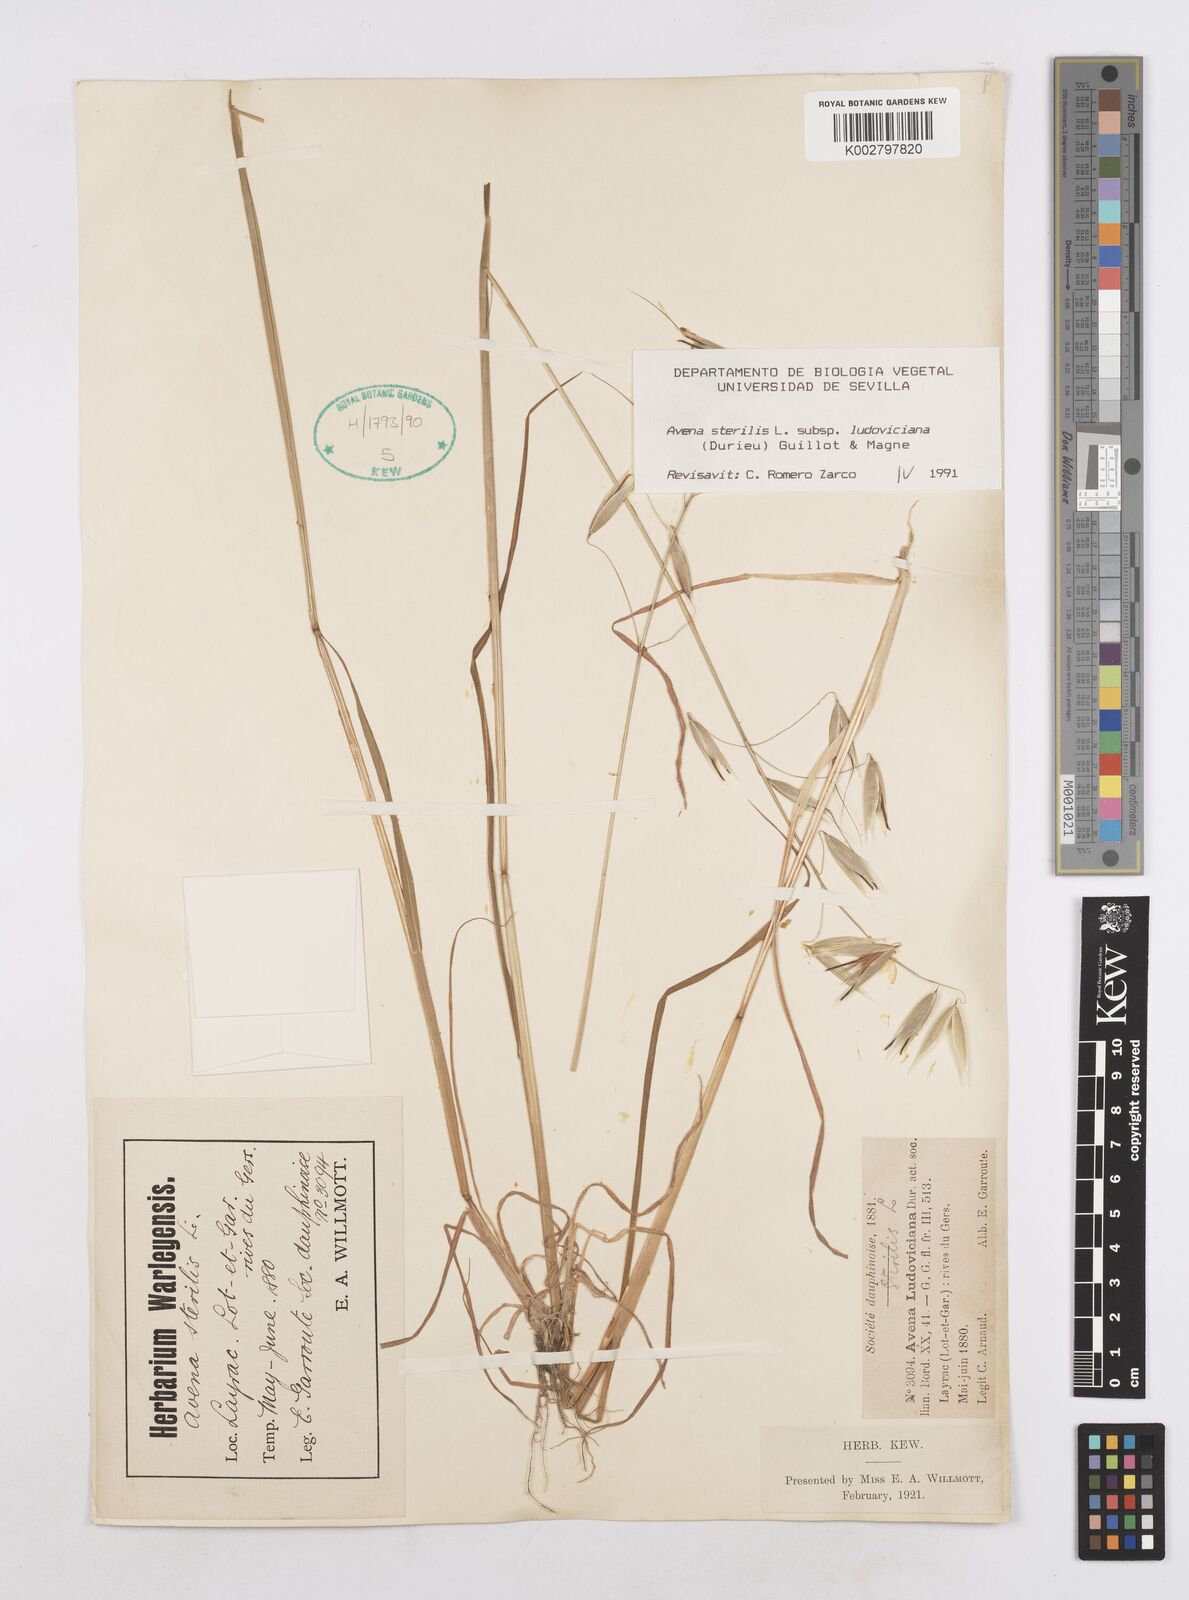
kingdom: Plantae
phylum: Tracheophyta
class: Liliopsida
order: Poales
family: Poaceae
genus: Avena
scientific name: Avena sterilis
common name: Animated oat
